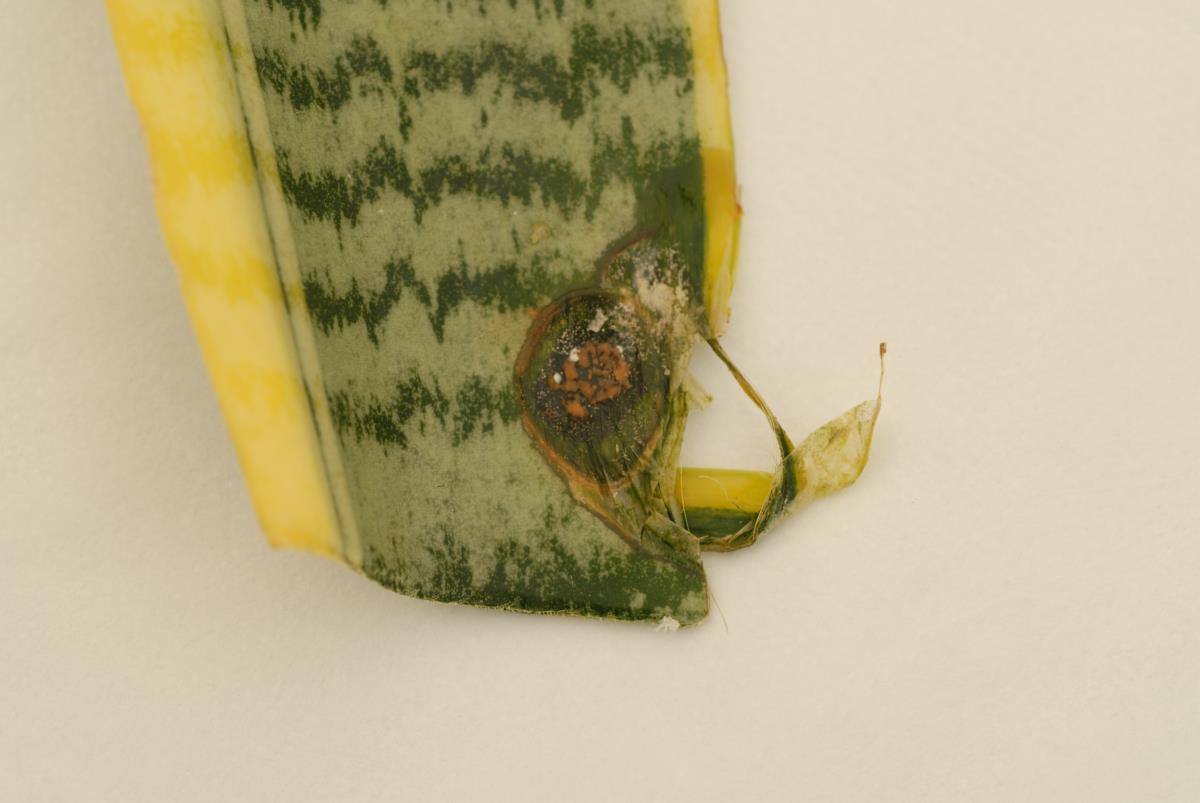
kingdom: Fungi
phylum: Ascomycota
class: Sordariomycetes
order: Glomerellales
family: Glomerellaceae
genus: Colletotrichum
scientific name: Colletotrichum sansevieriae
